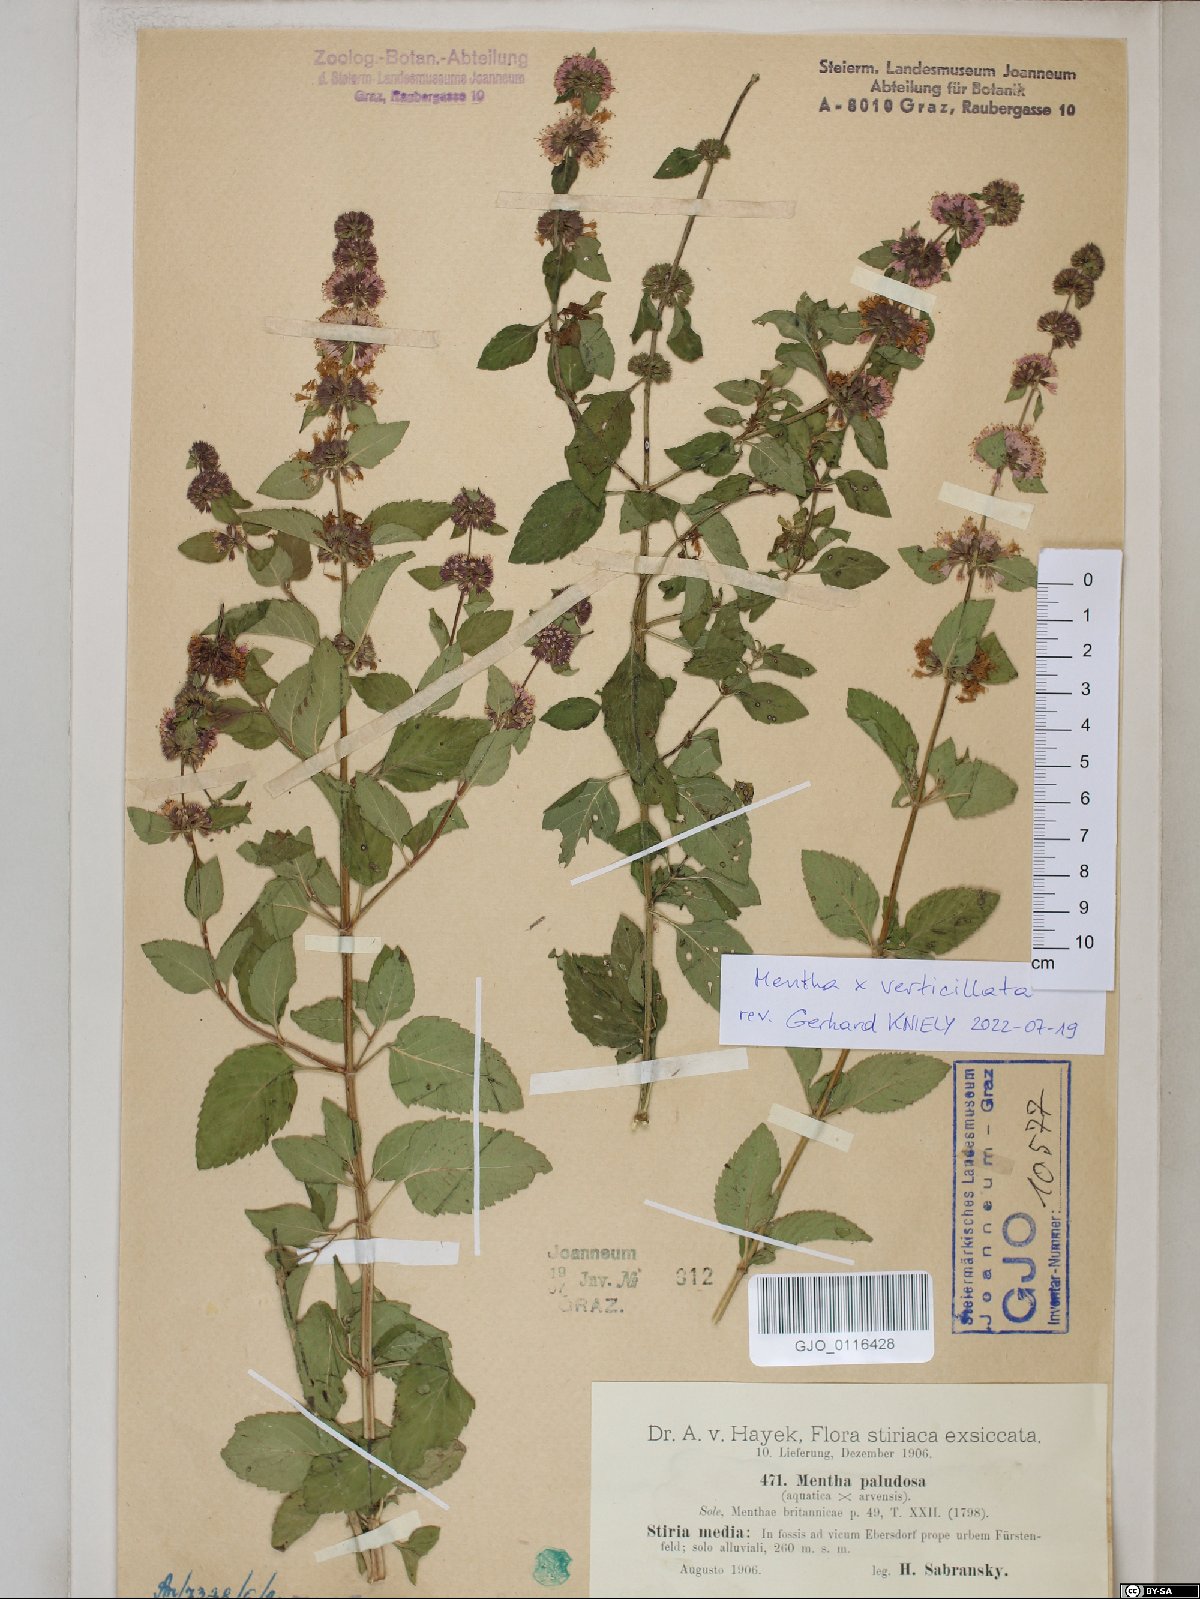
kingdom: Plantae
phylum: Tracheophyta
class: Magnoliopsida
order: Lamiales
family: Lamiaceae
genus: Mentha
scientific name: Mentha verticillata
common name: Mint
